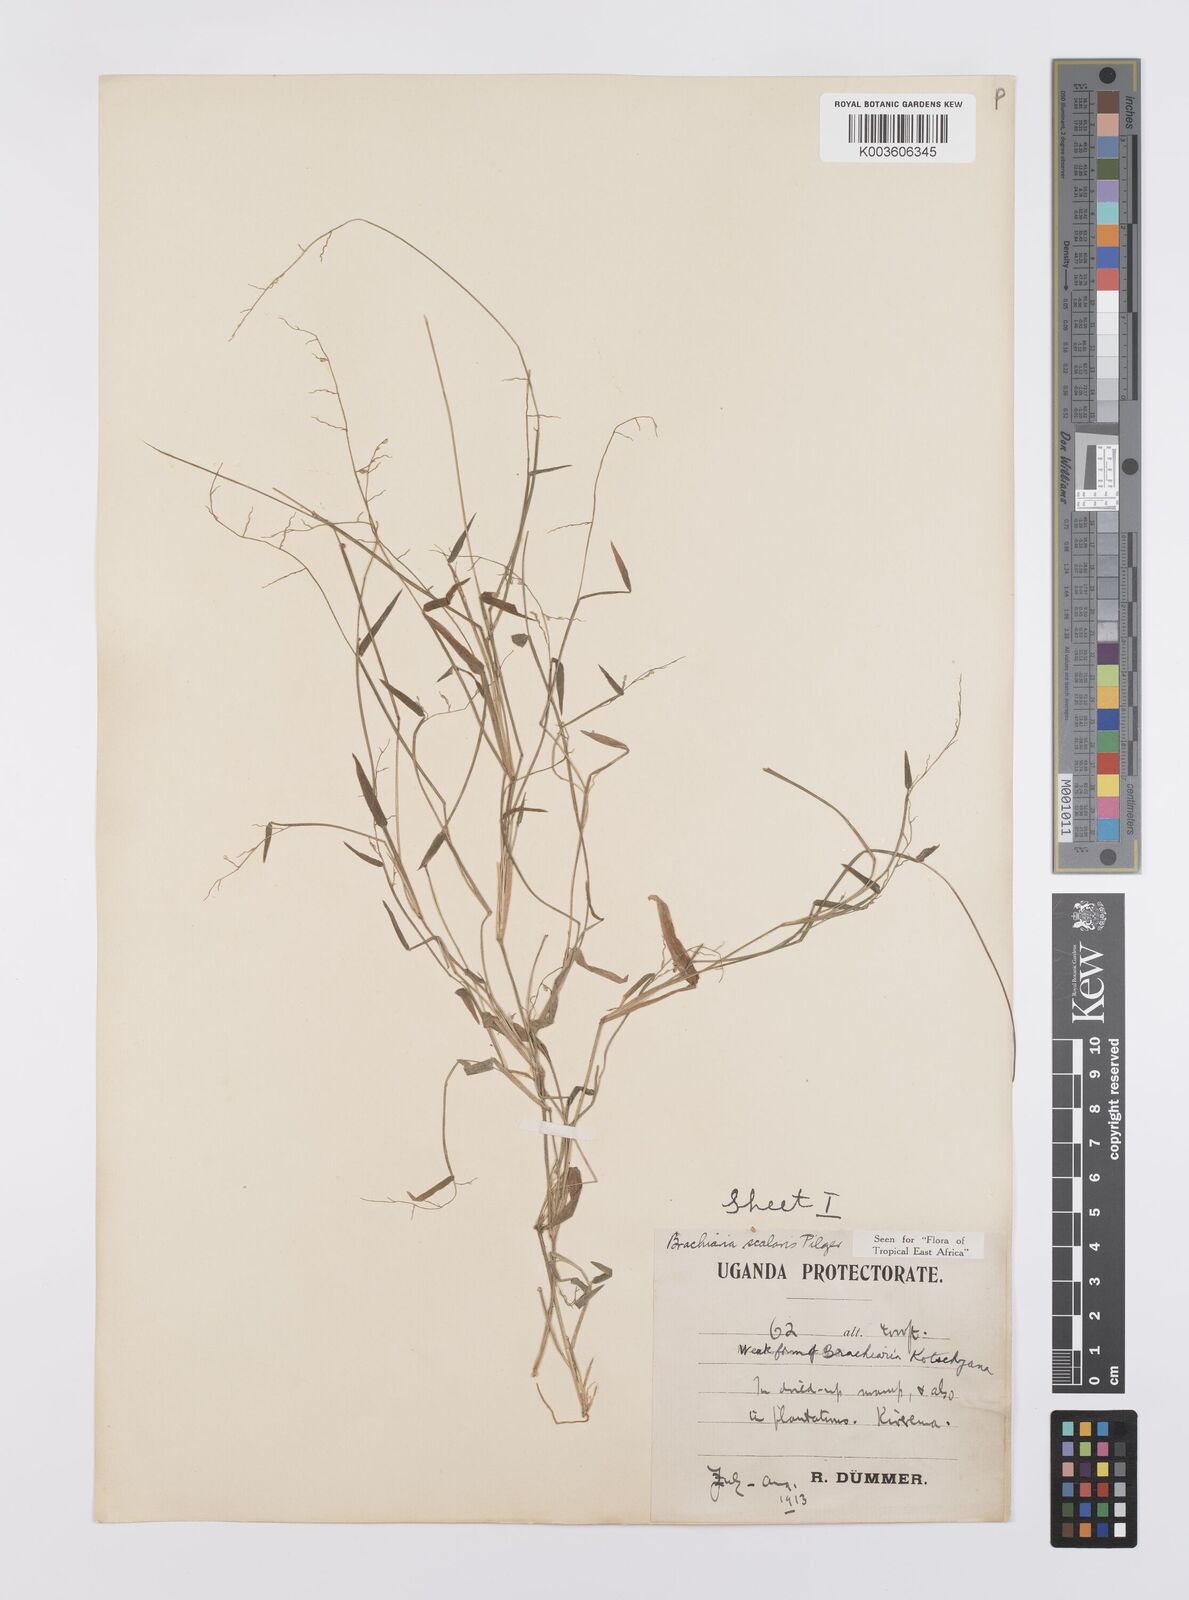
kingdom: Plantae
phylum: Tracheophyta
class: Liliopsida
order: Poales
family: Poaceae
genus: Urochloa
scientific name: Urochloa comata
